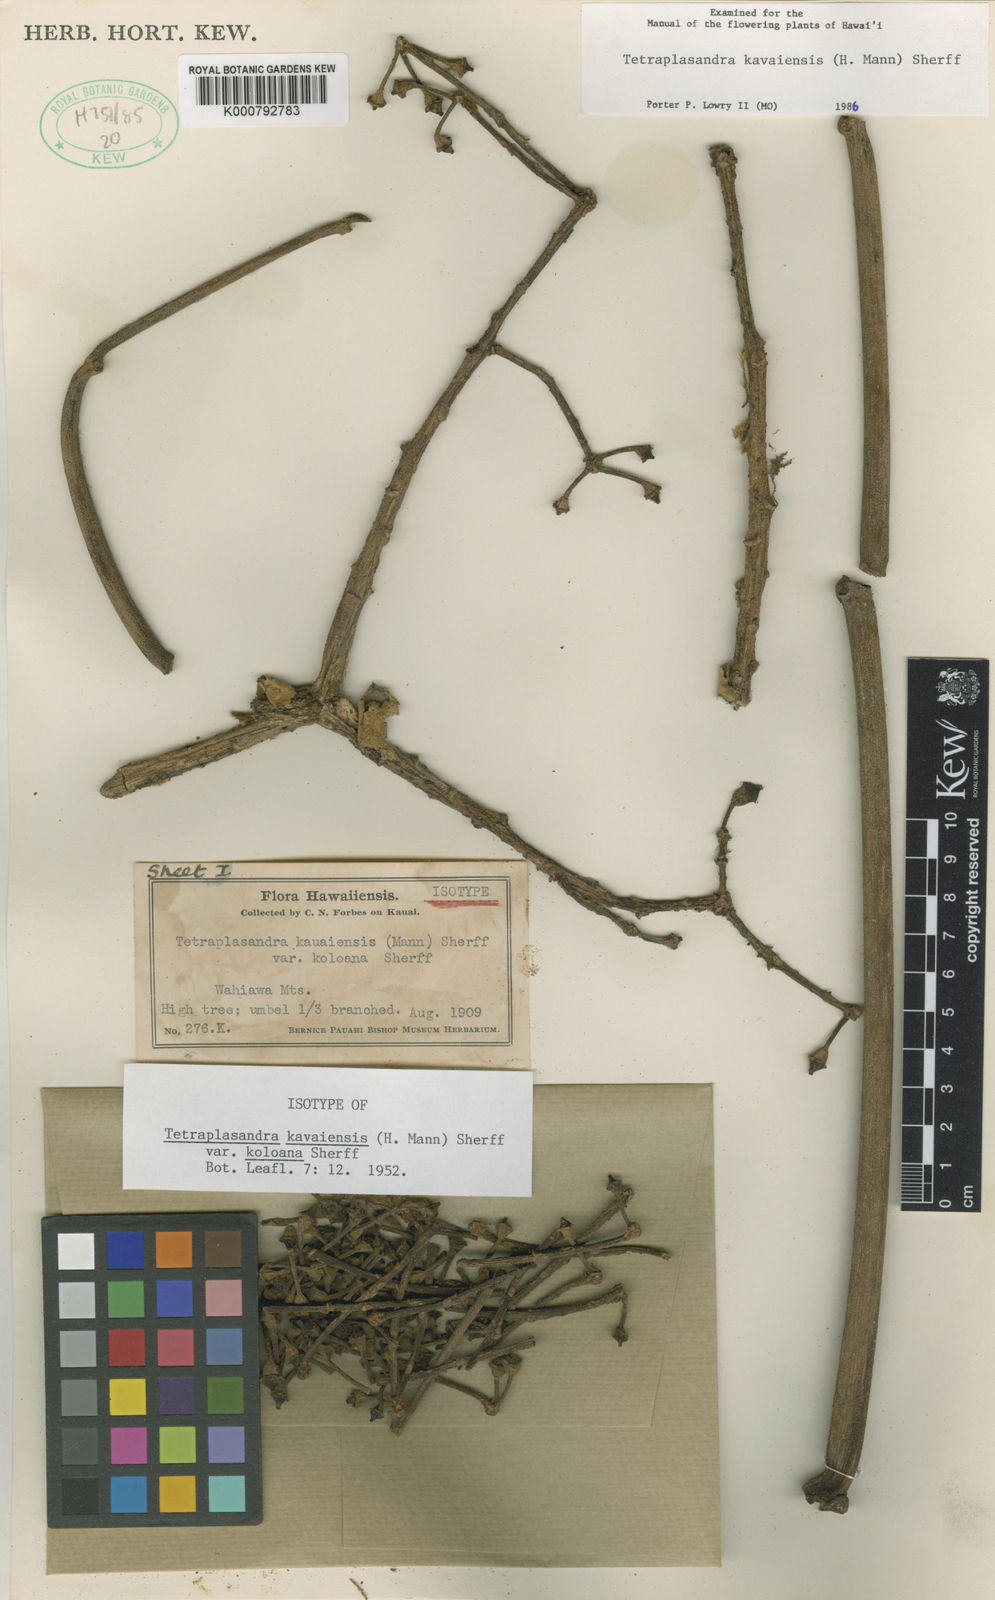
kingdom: Plantae
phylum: Tracheophyta
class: Magnoliopsida
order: Apiales
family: Araliaceae
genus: Polyscias
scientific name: Polyscias kavaiensis
